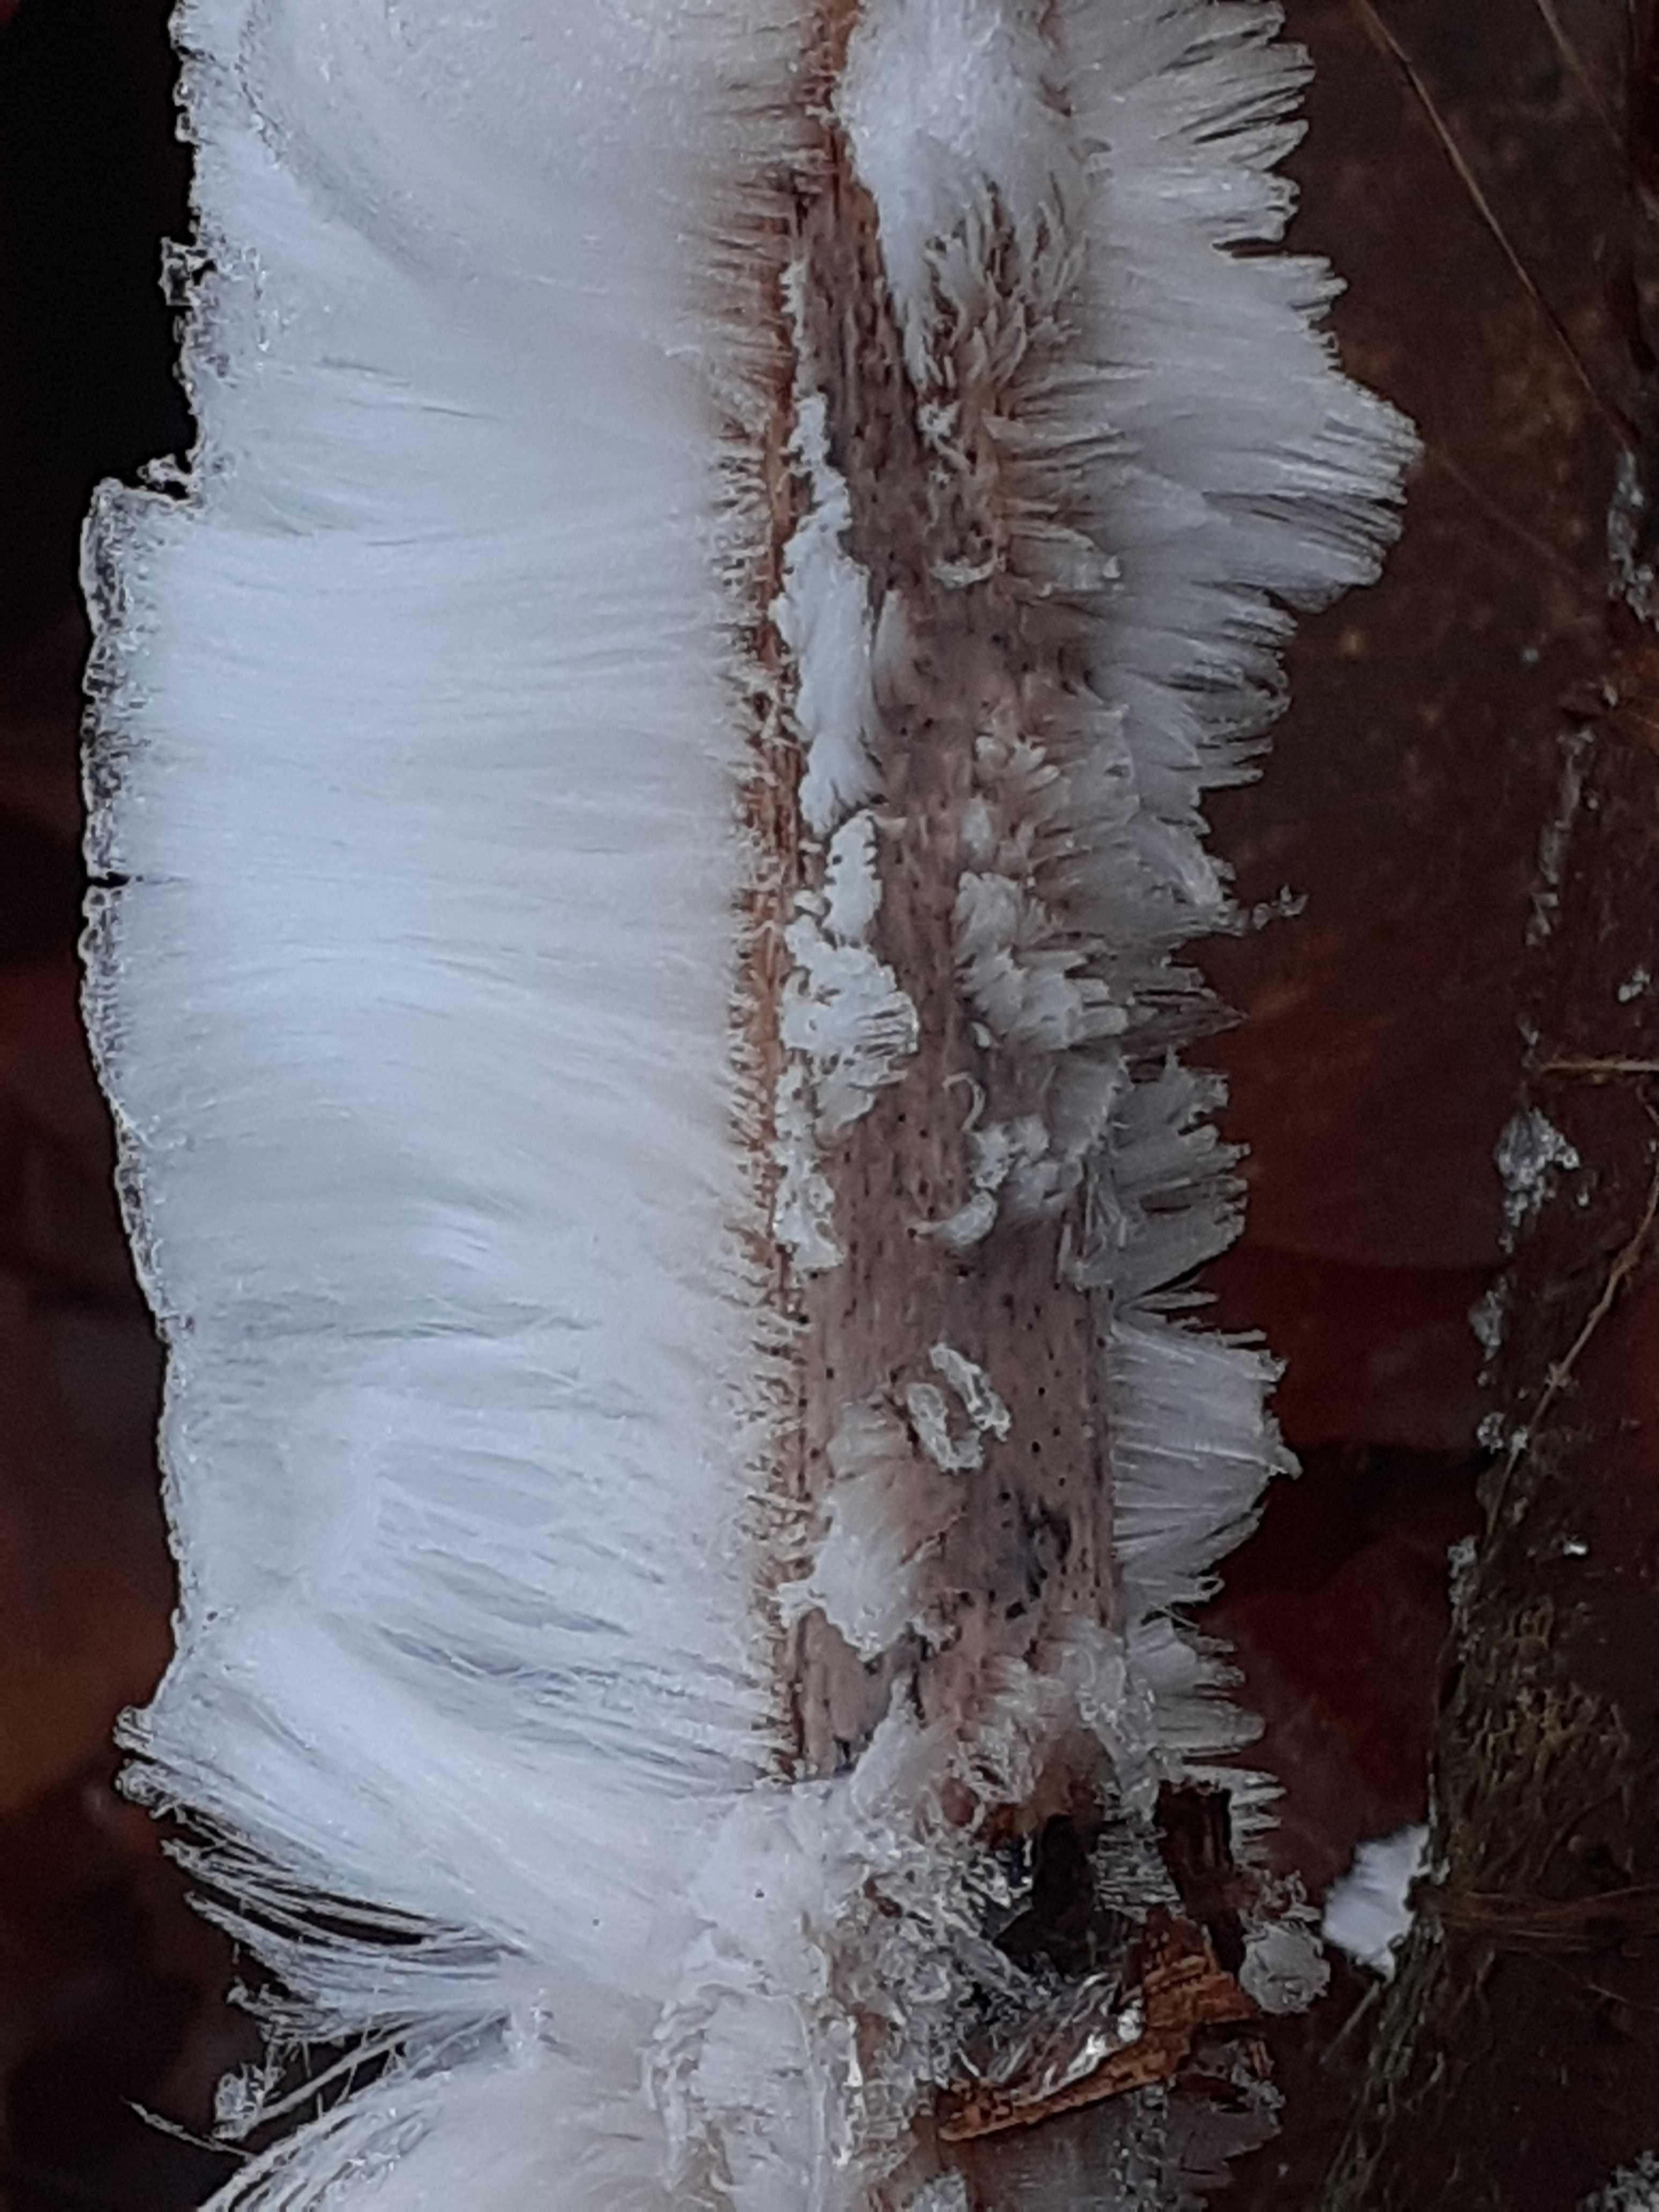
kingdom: Fungi
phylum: Basidiomycota
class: Tremellomycetes
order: Tremellales
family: Exidiaceae
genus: Exidiopsis
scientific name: Exidiopsis effusa
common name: smuk bævrehinde
